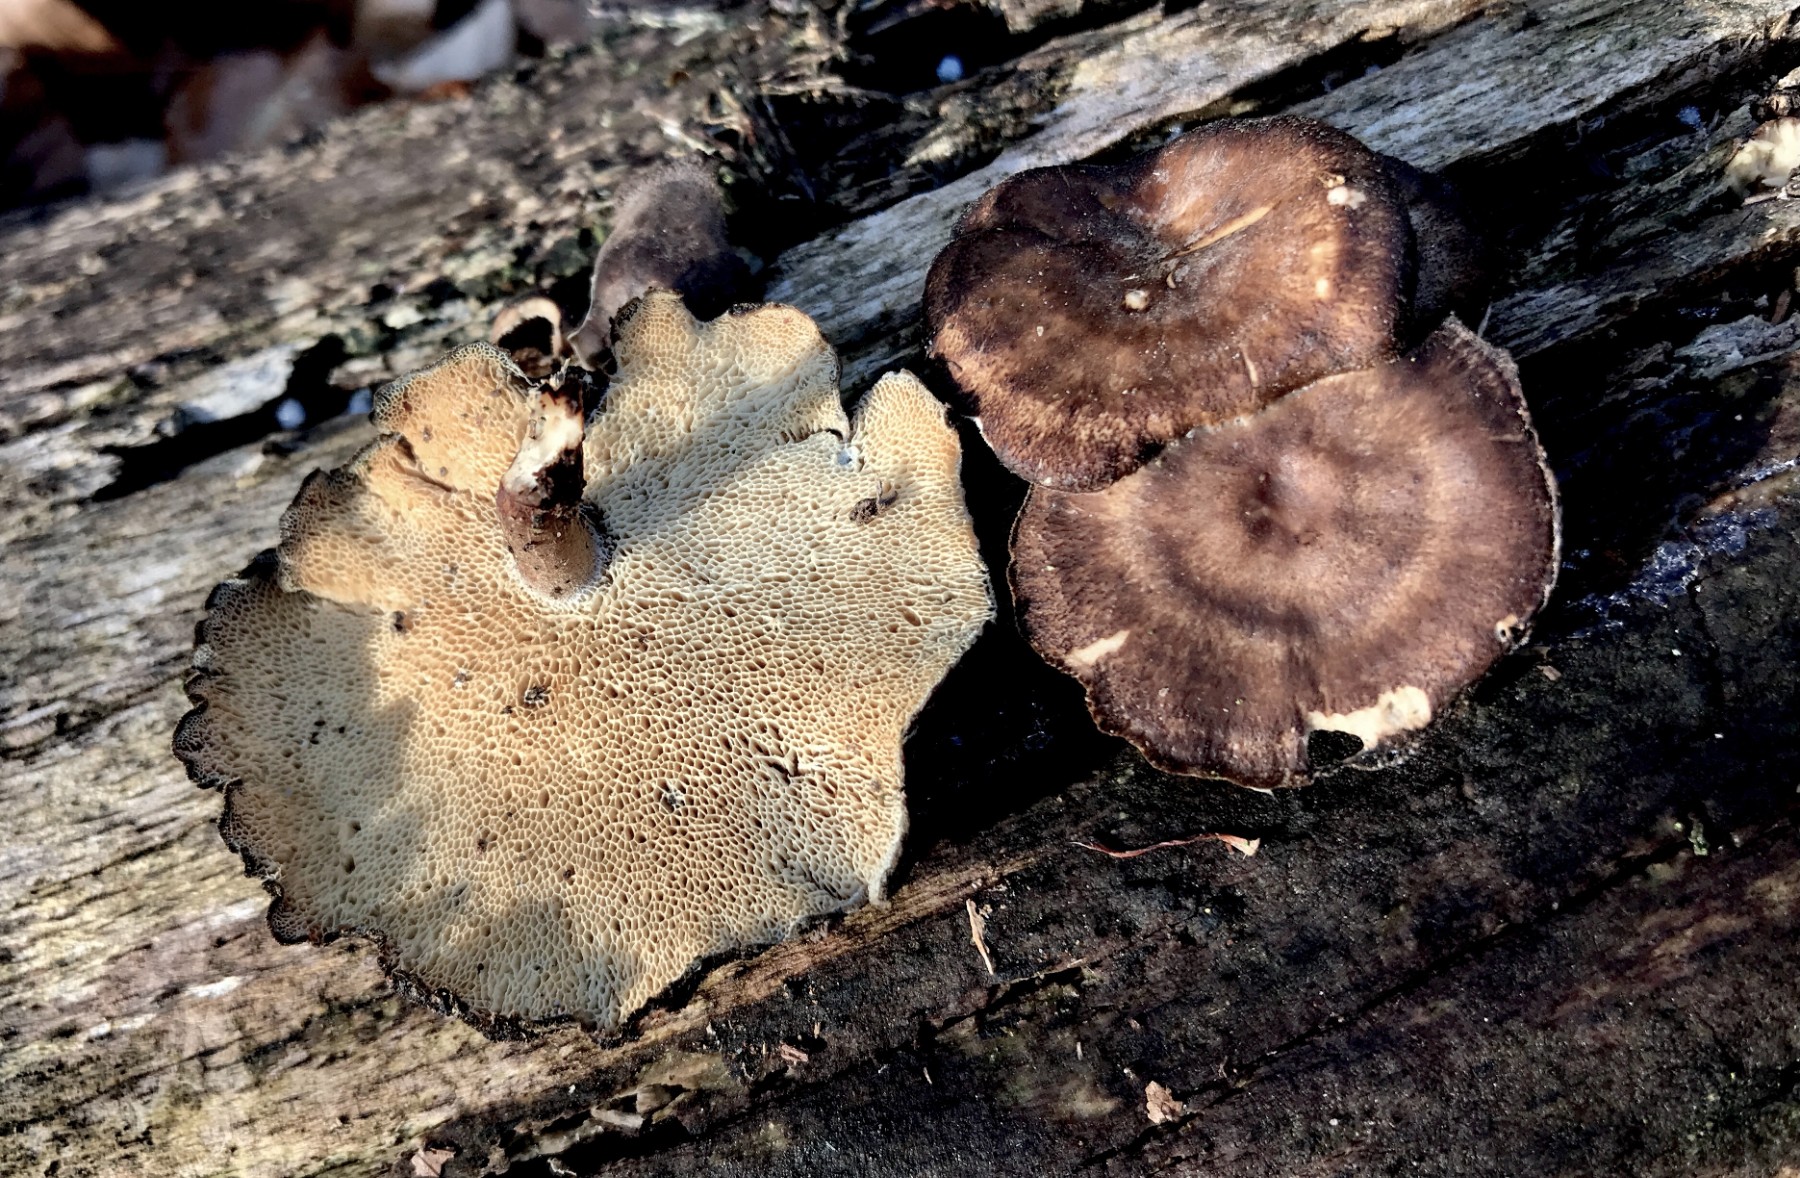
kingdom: Fungi
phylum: Basidiomycota
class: Agaricomycetes
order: Polyporales
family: Polyporaceae
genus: Lentinus
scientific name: Lentinus brumalis
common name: vinter-stilkporesvamp
